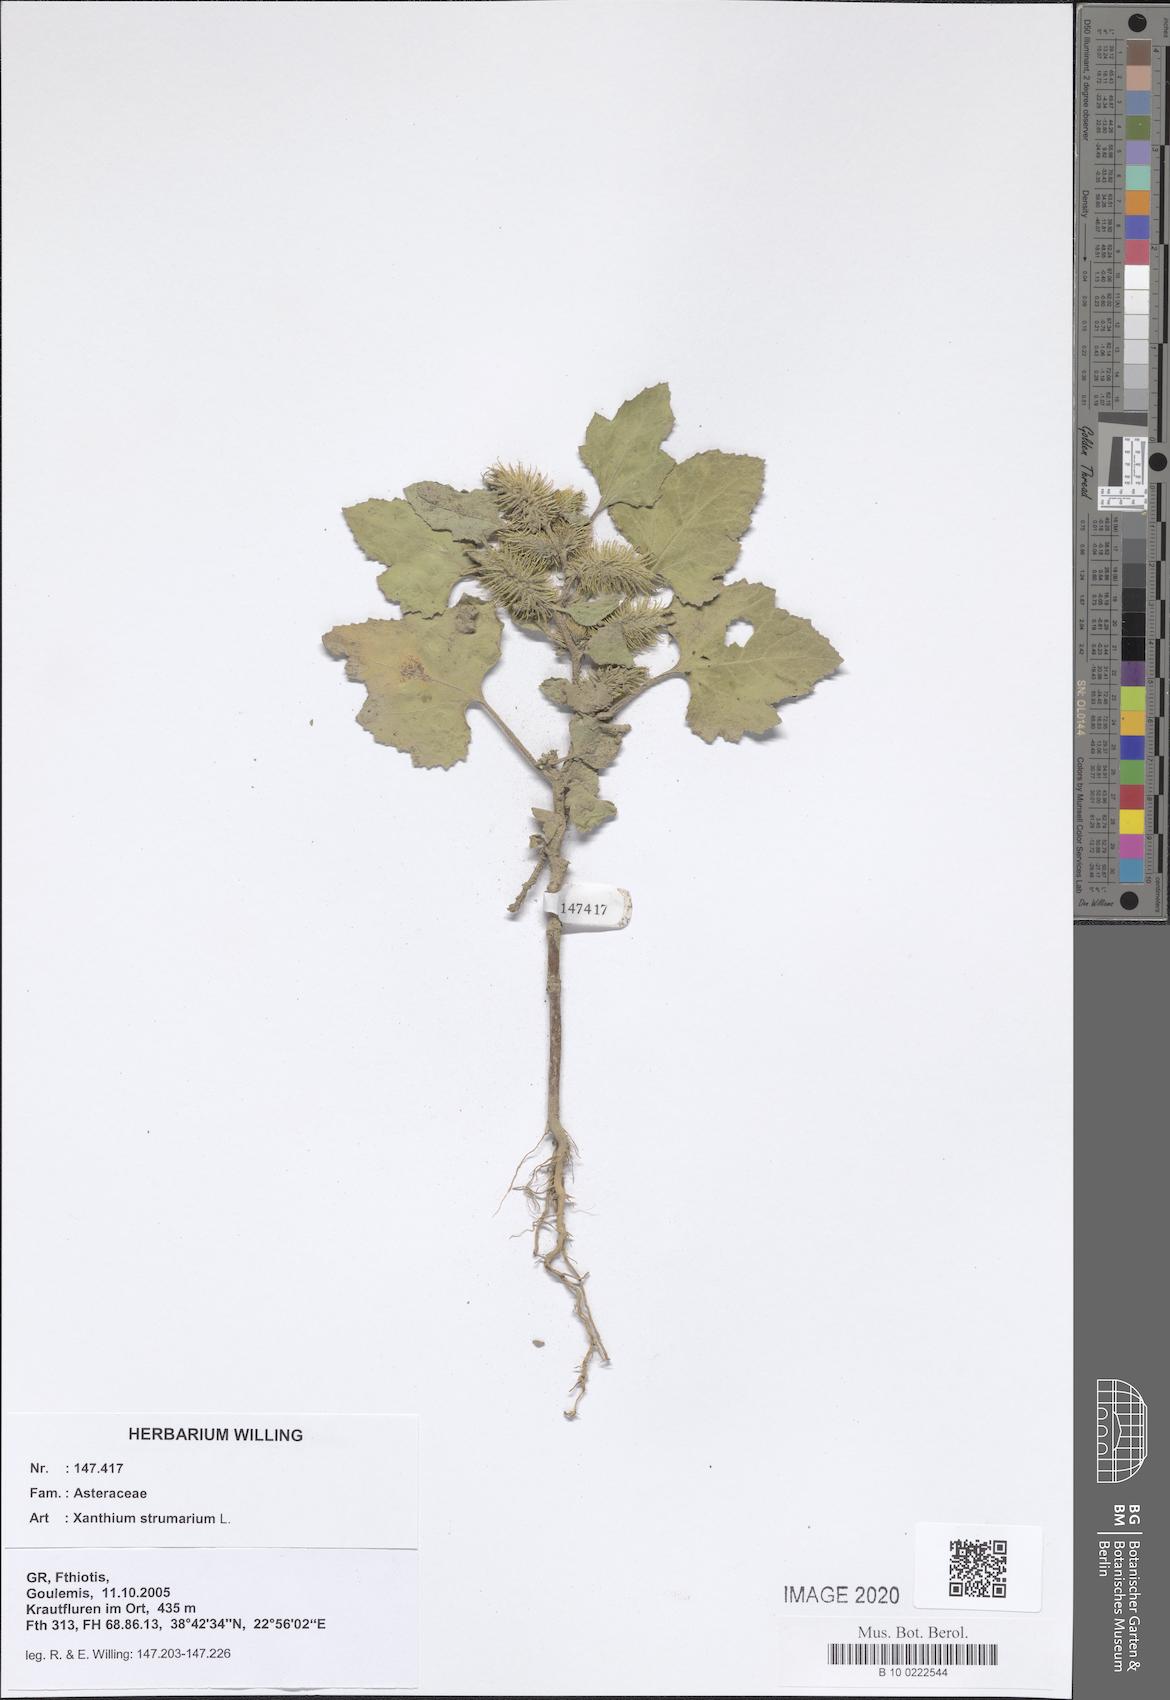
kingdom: Plantae
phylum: Tracheophyta
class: Magnoliopsida
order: Asterales
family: Asteraceae
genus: Xanthium
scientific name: Xanthium strumarium
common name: Rough cocklebur
